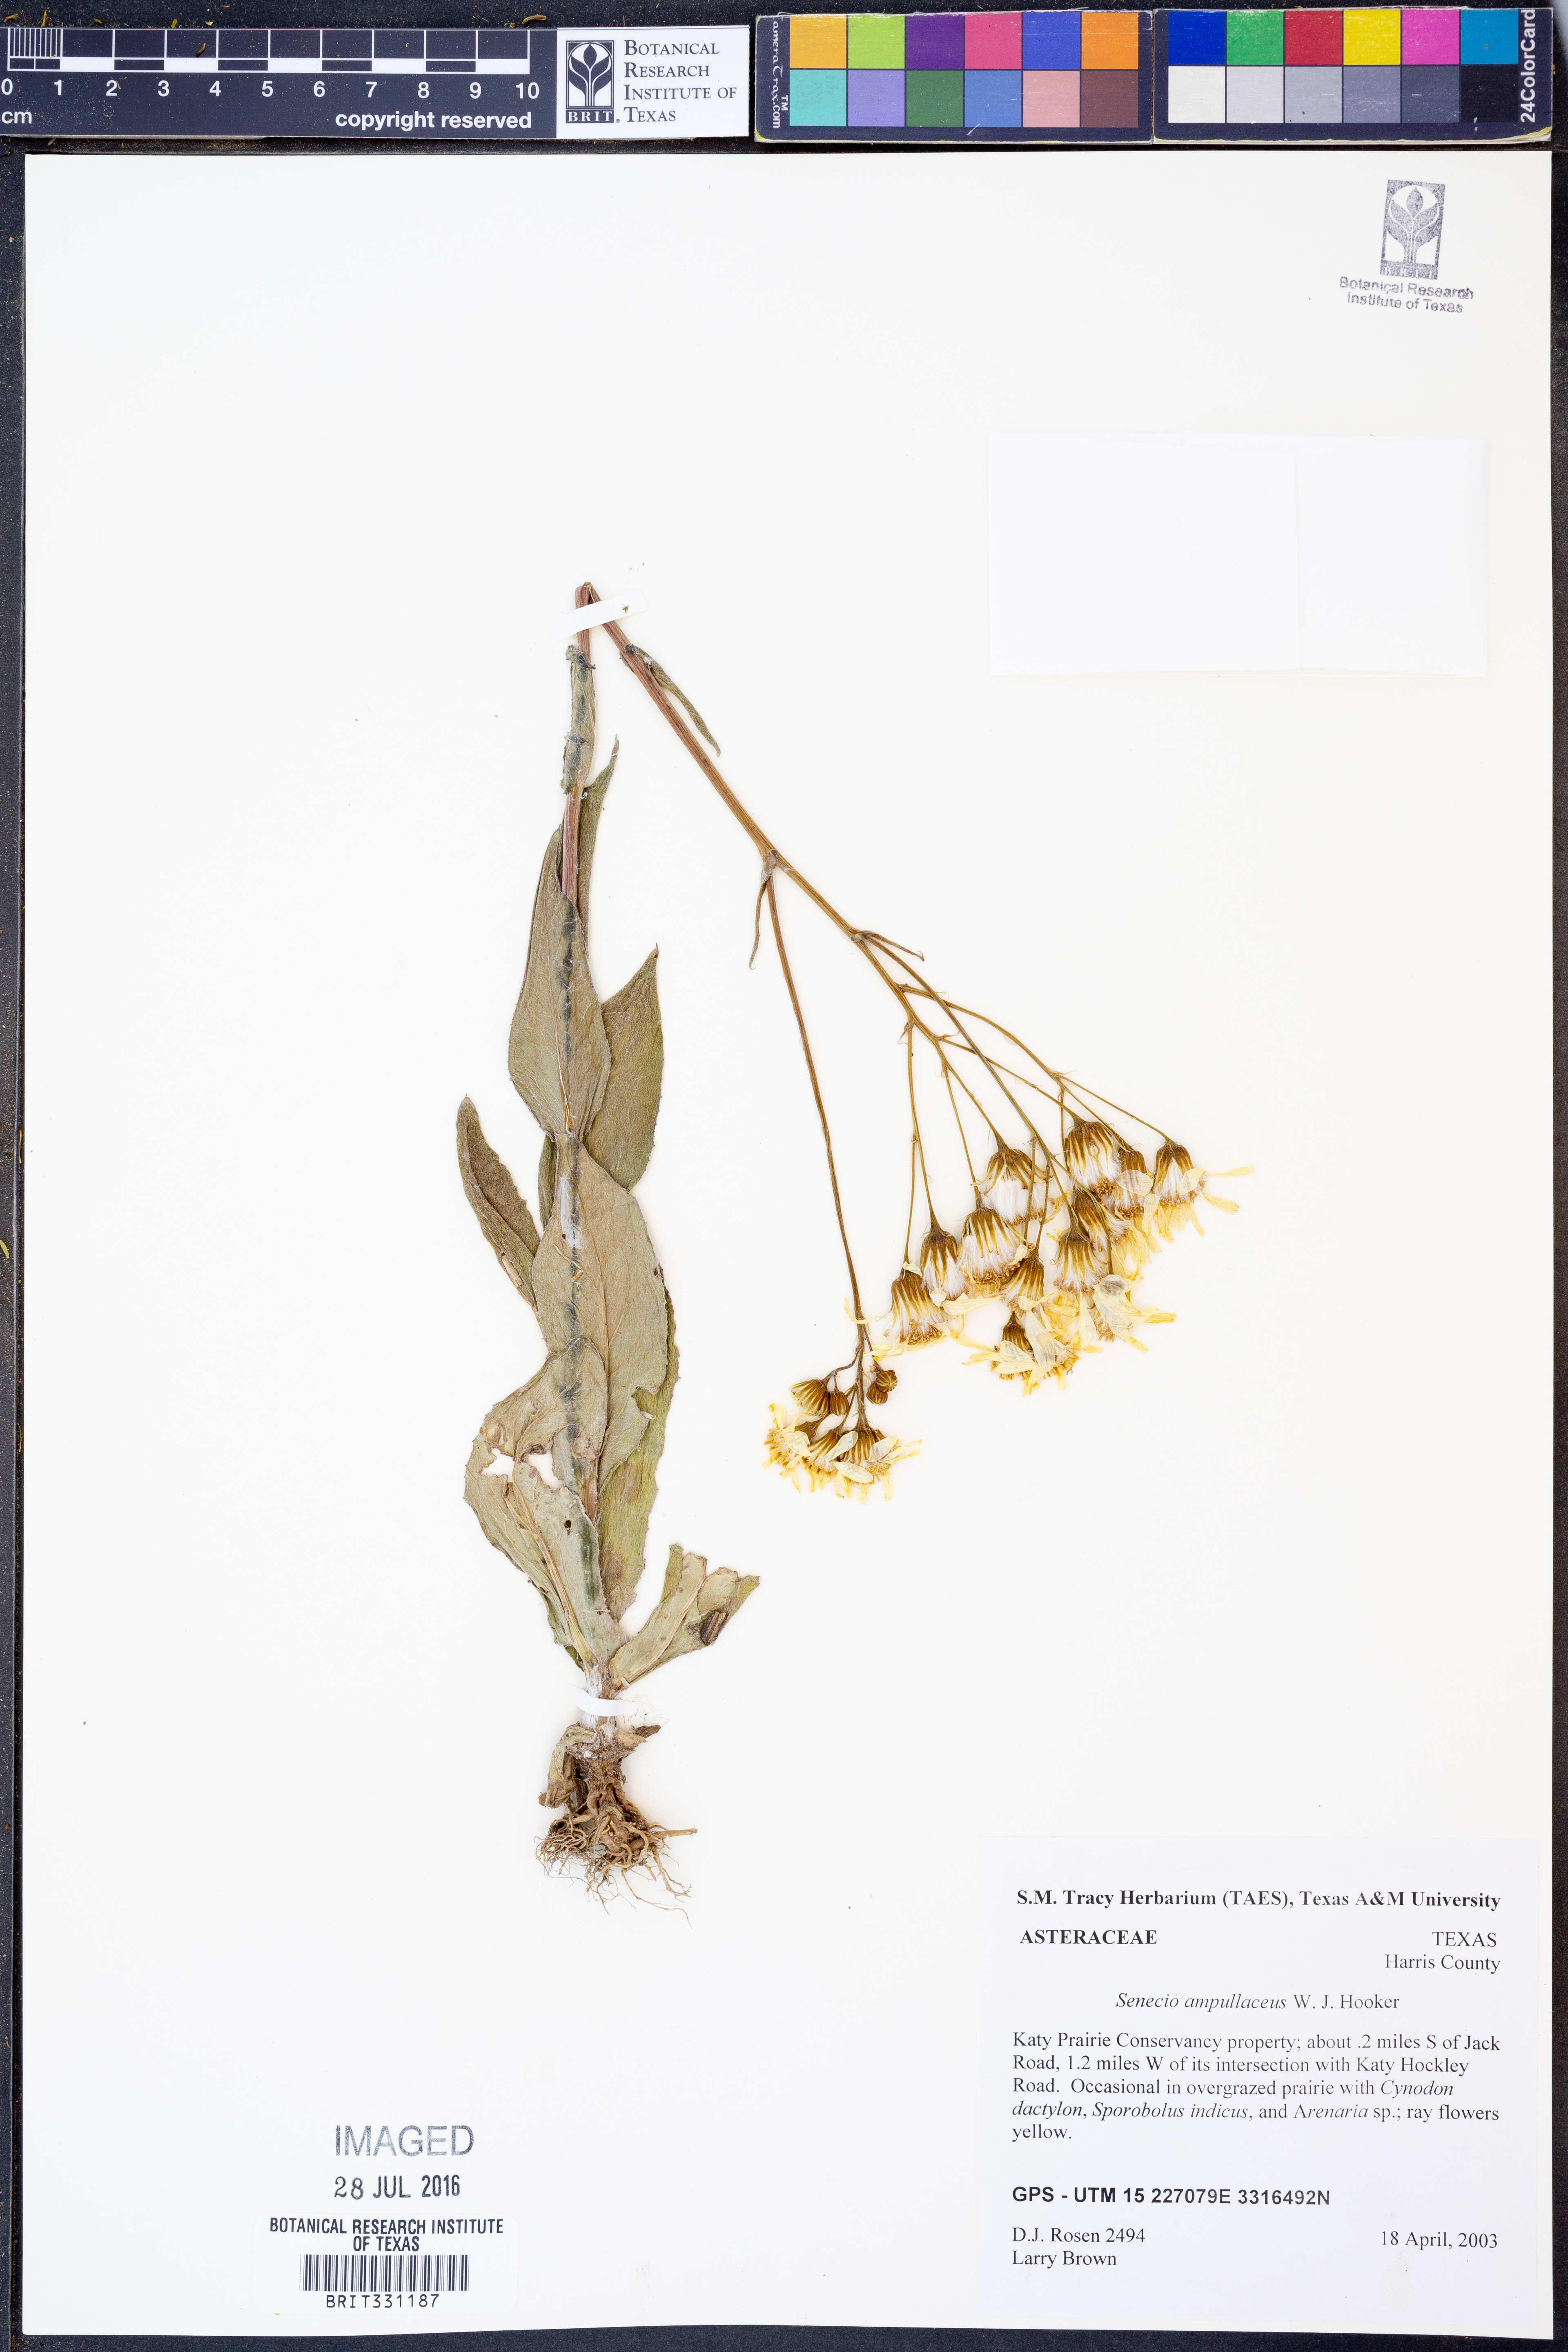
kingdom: Plantae
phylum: Tracheophyta
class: Magnoliopsida
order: Asterales
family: Asteraceae
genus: Senecio
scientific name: Senecio ampullaceus
